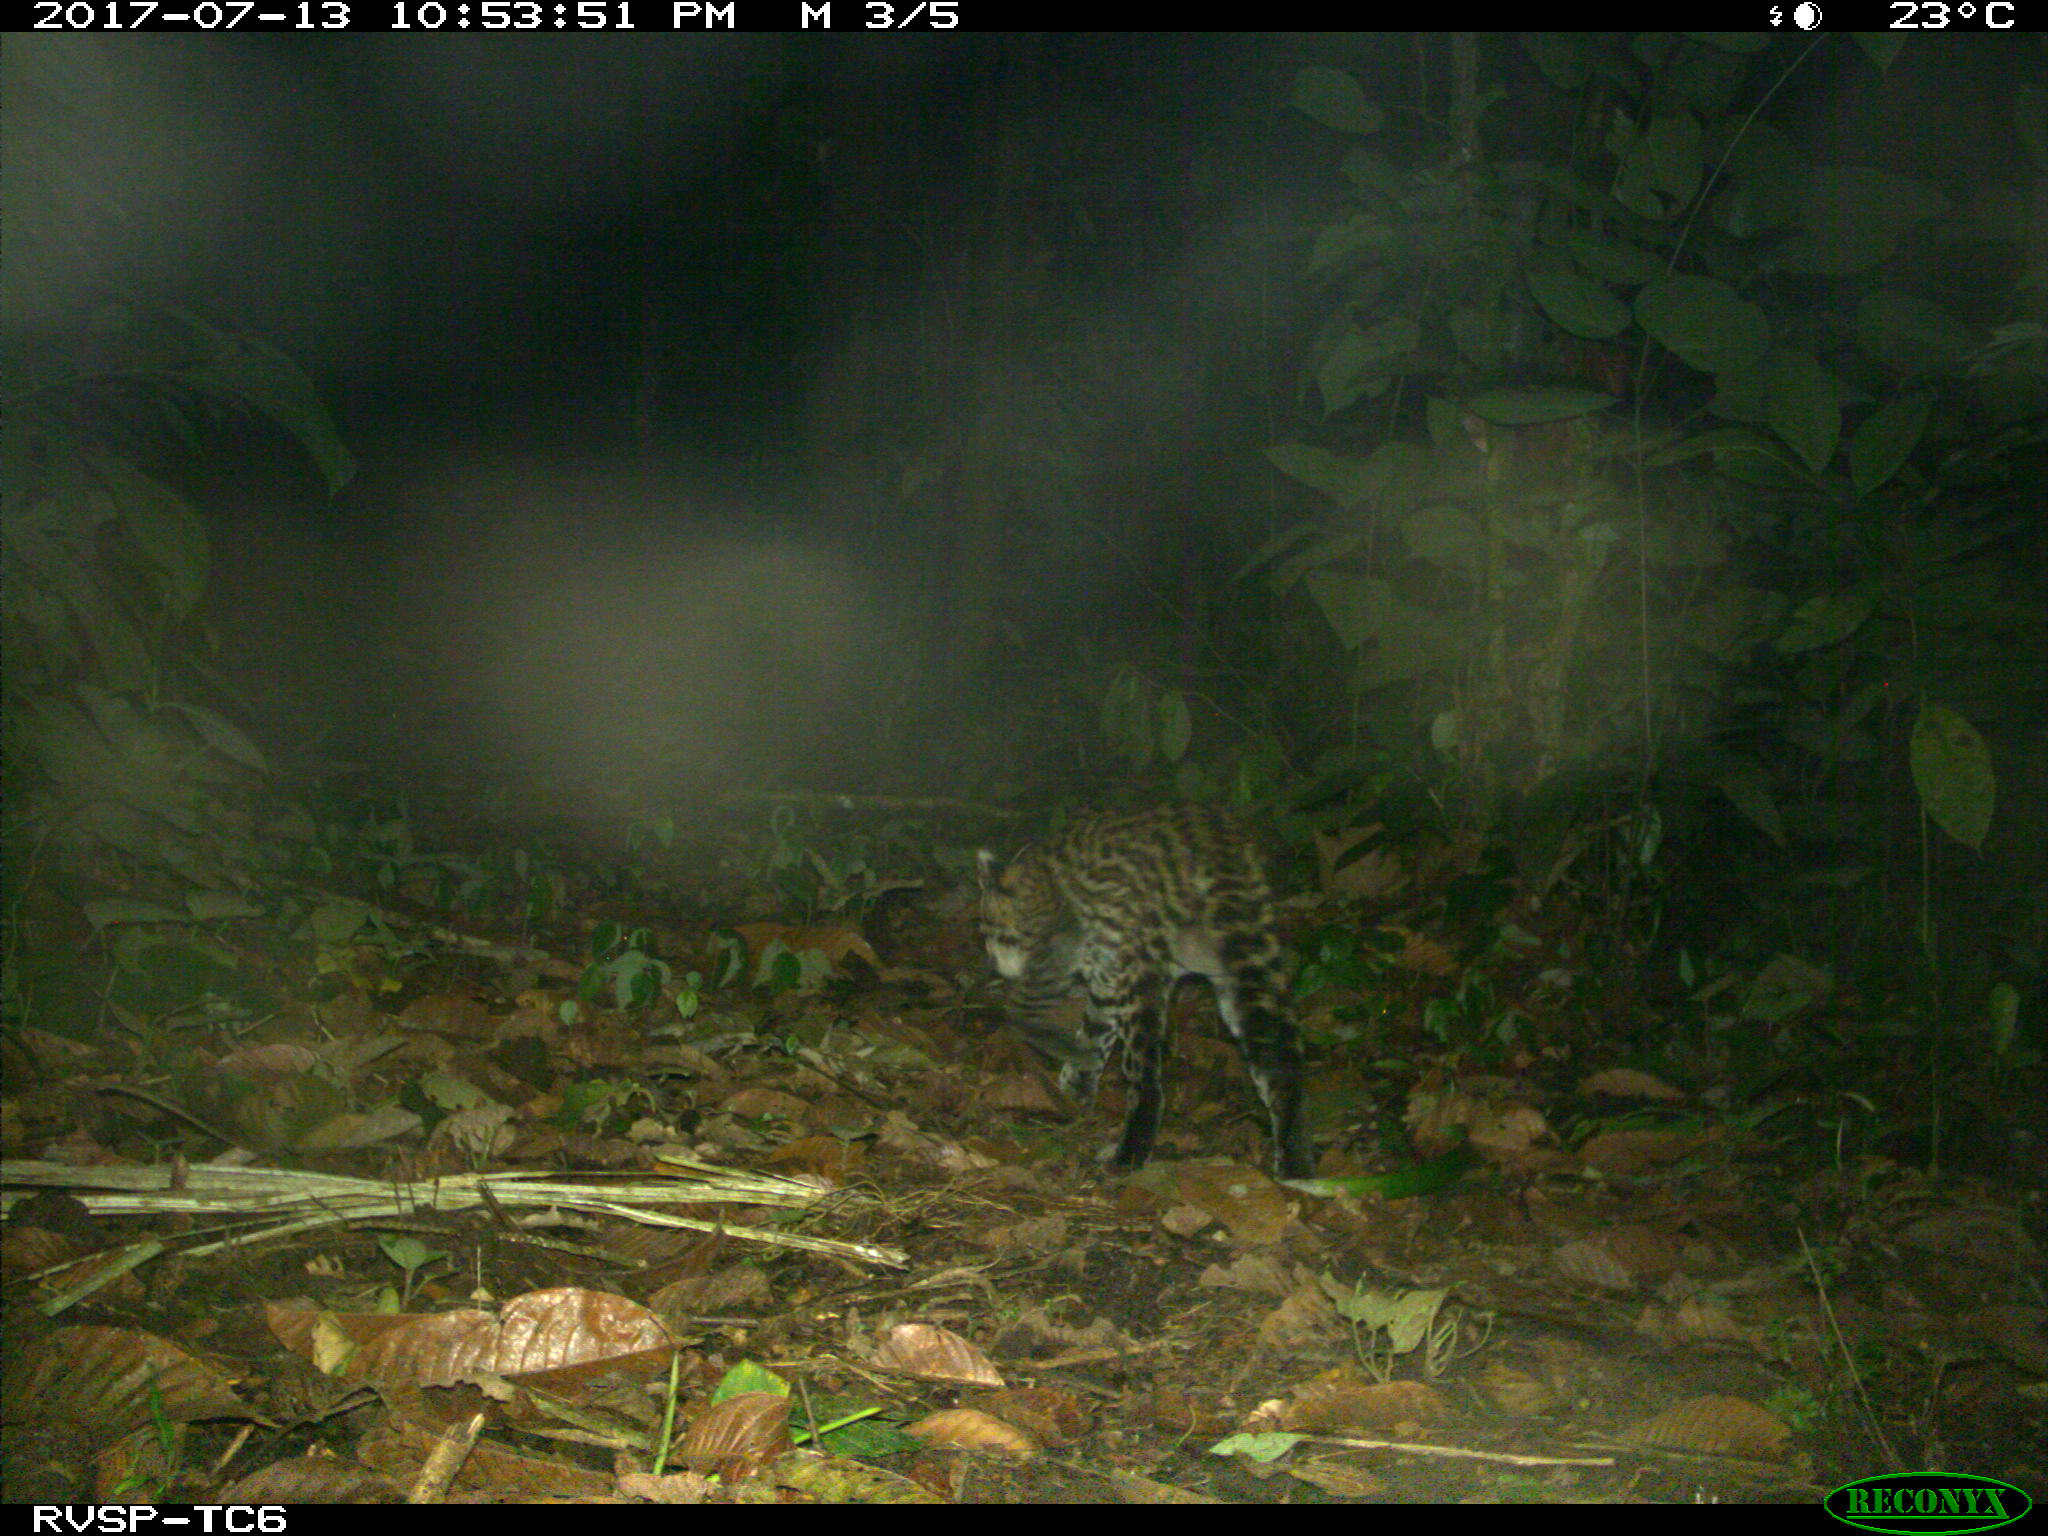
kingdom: Animalia
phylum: Chordata
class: Mammalia
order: Carnivora
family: Felidae
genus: Leopardus
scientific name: Leopardus pardalis
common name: Ocelot
